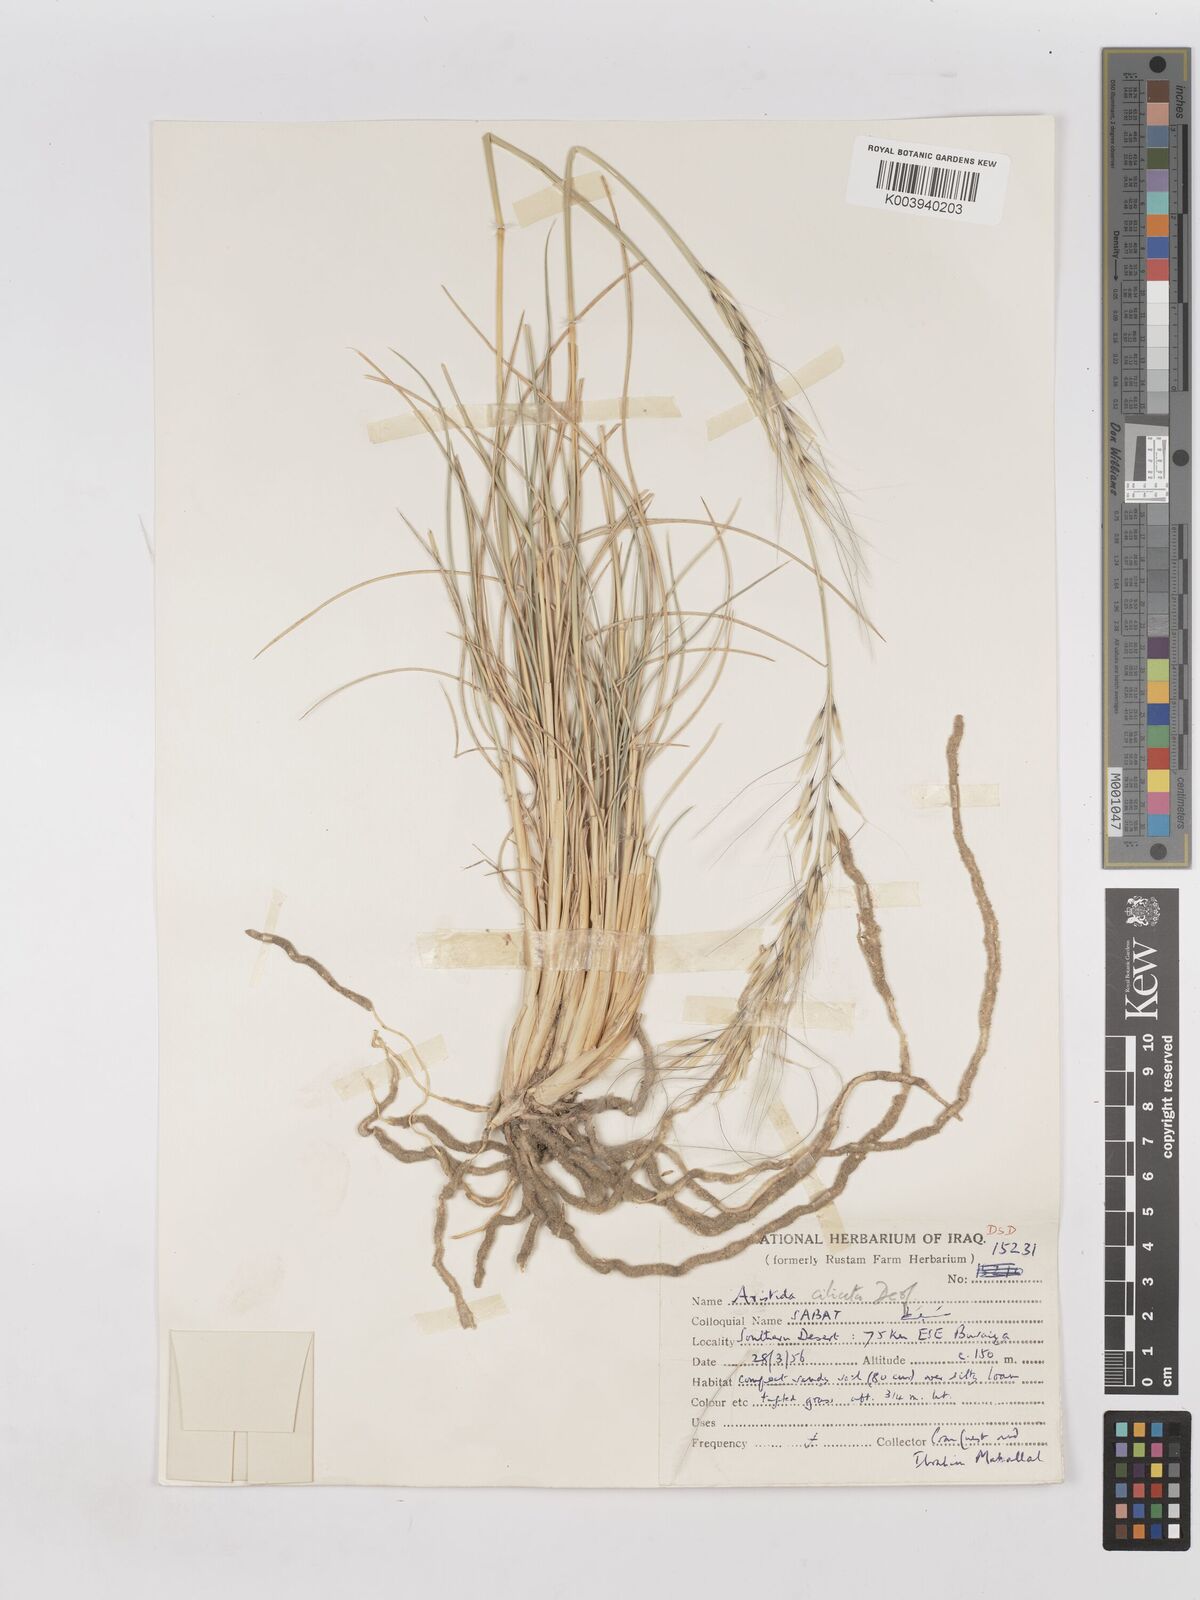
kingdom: Plantae
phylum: Tracheophyta
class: Liliopsida
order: Poales
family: Poaceae
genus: Stipagrostis
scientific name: Stipagrostis ciliata
